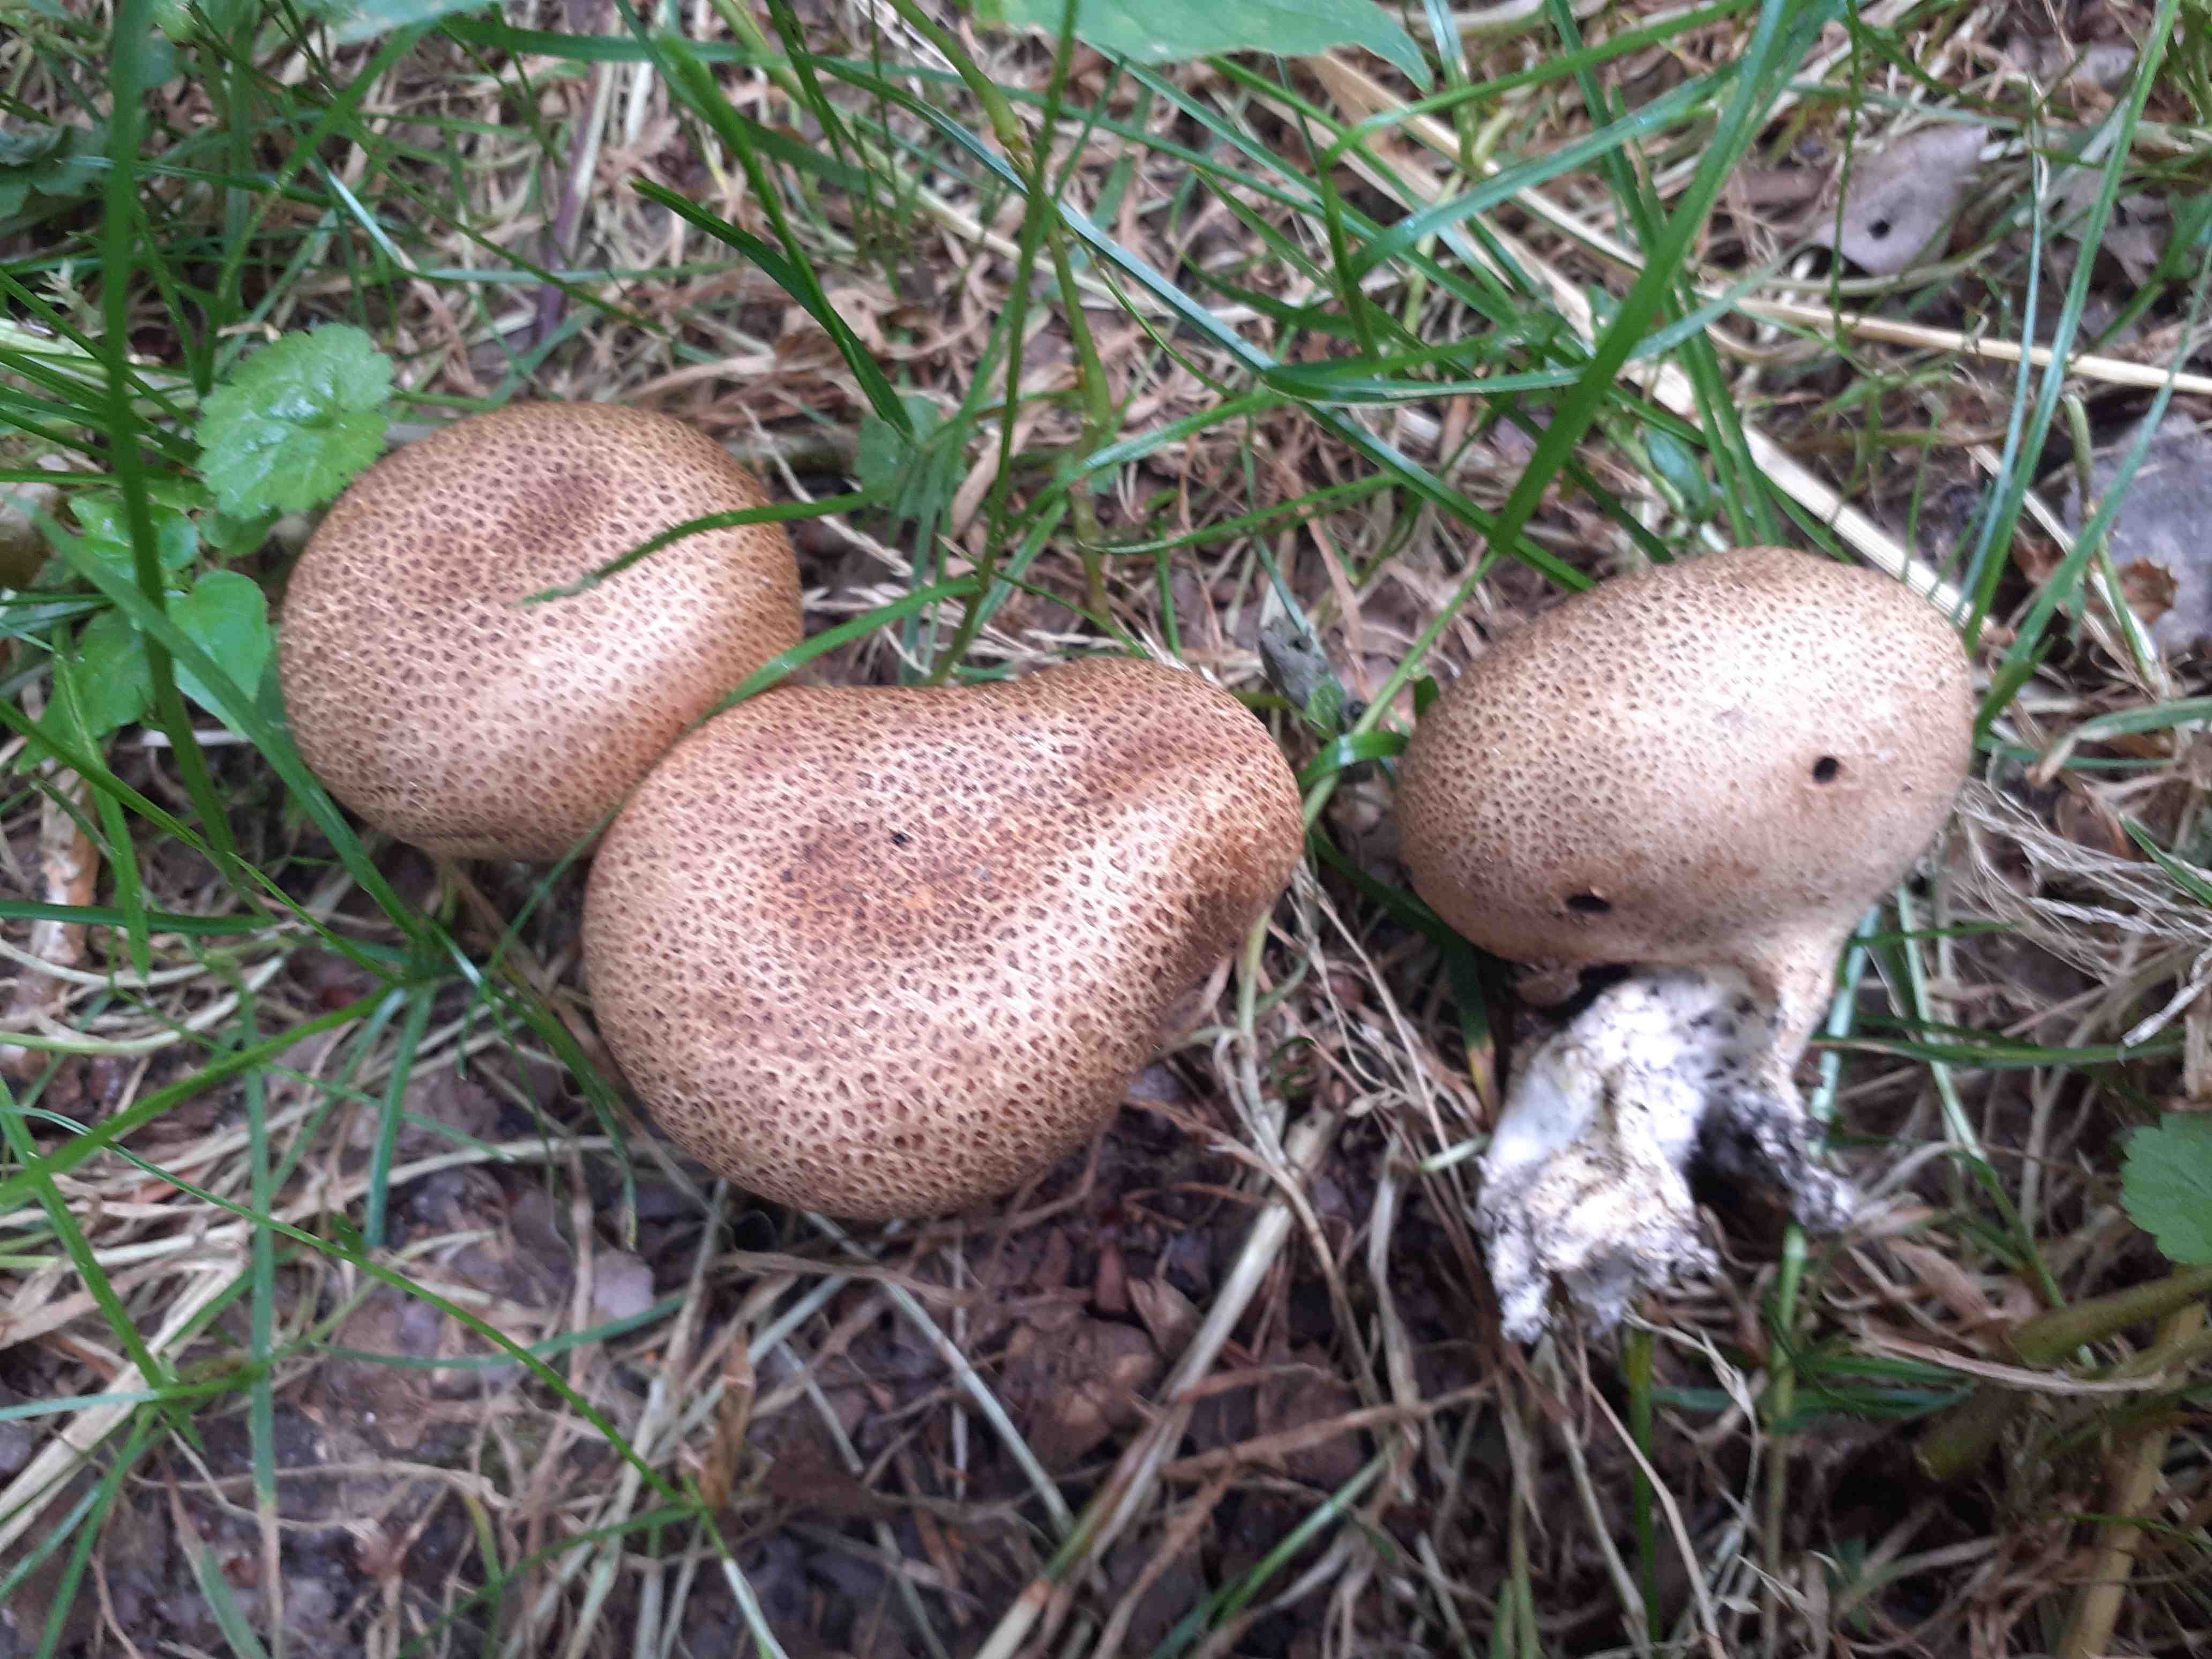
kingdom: Fungi
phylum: Basidiomycota
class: Agaricomycetes
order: Boletales
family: Sclerodermataceae
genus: Scleroderma
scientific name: Scleroderma areolatum
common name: plettet bruskbold
